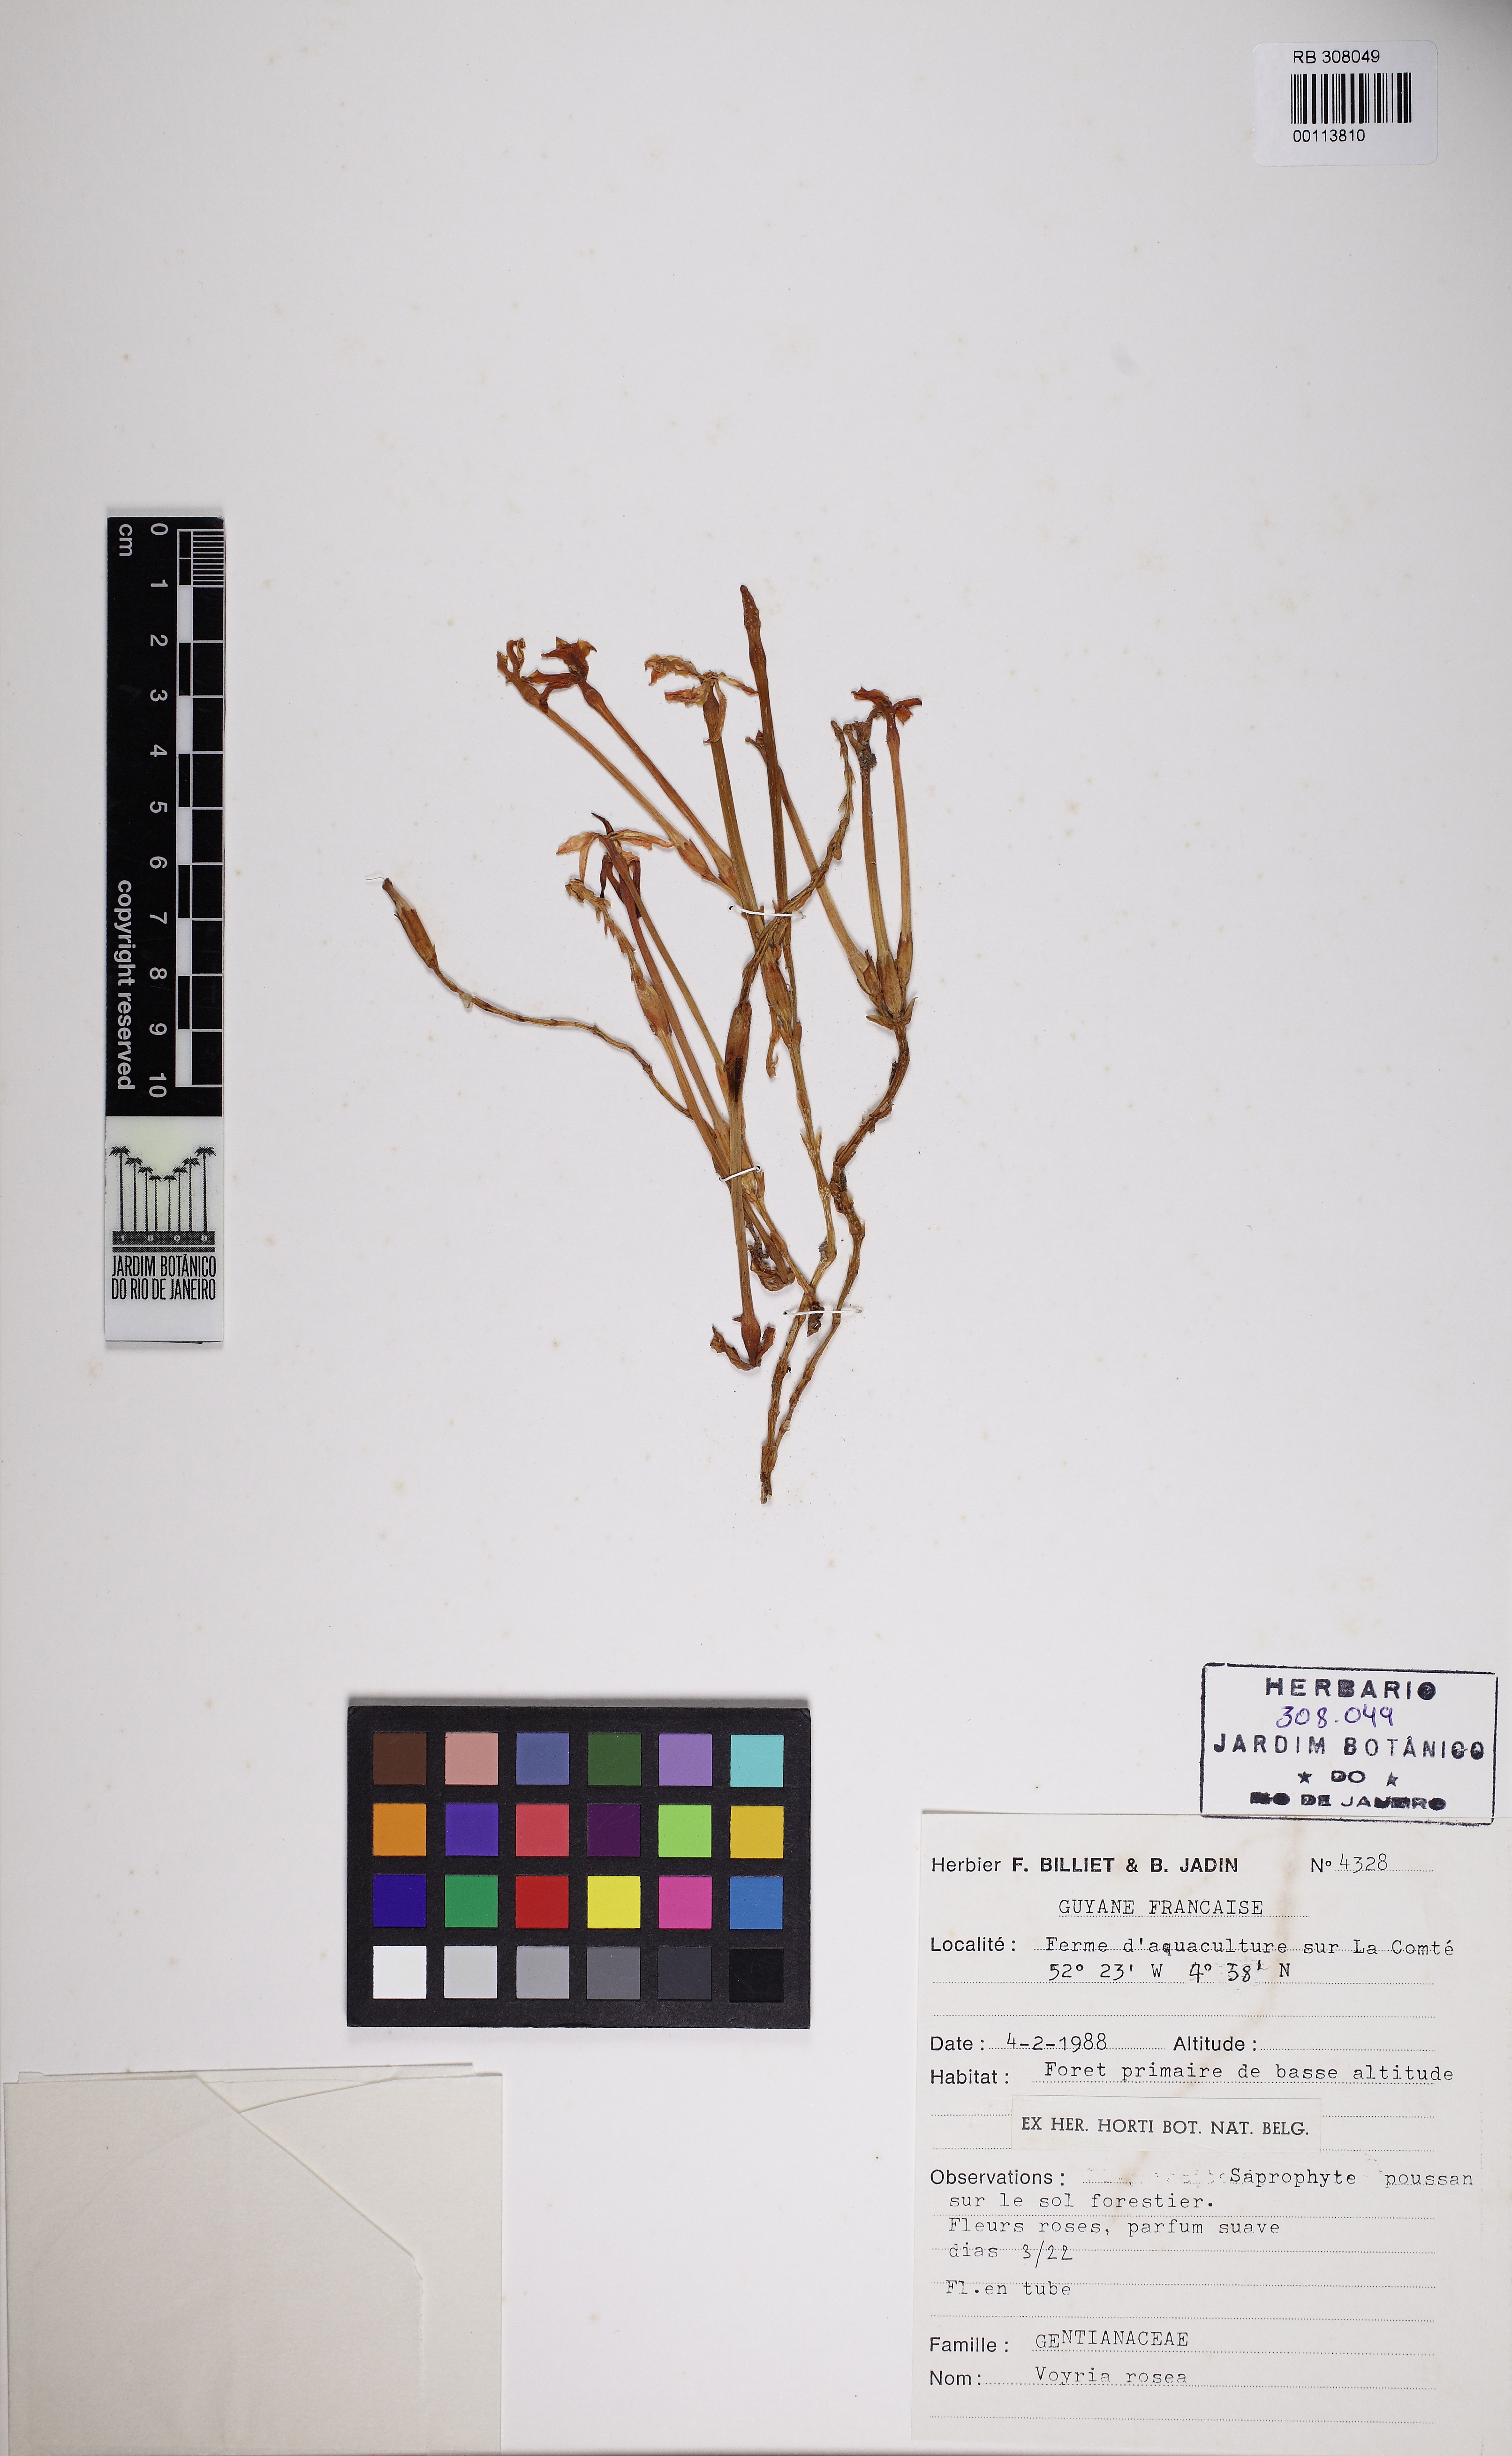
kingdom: Plantae
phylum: Tracheophyta
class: Magnoliopsida
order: Gentianales
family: Gentianaceae
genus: Voyria
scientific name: Voyria rosea
